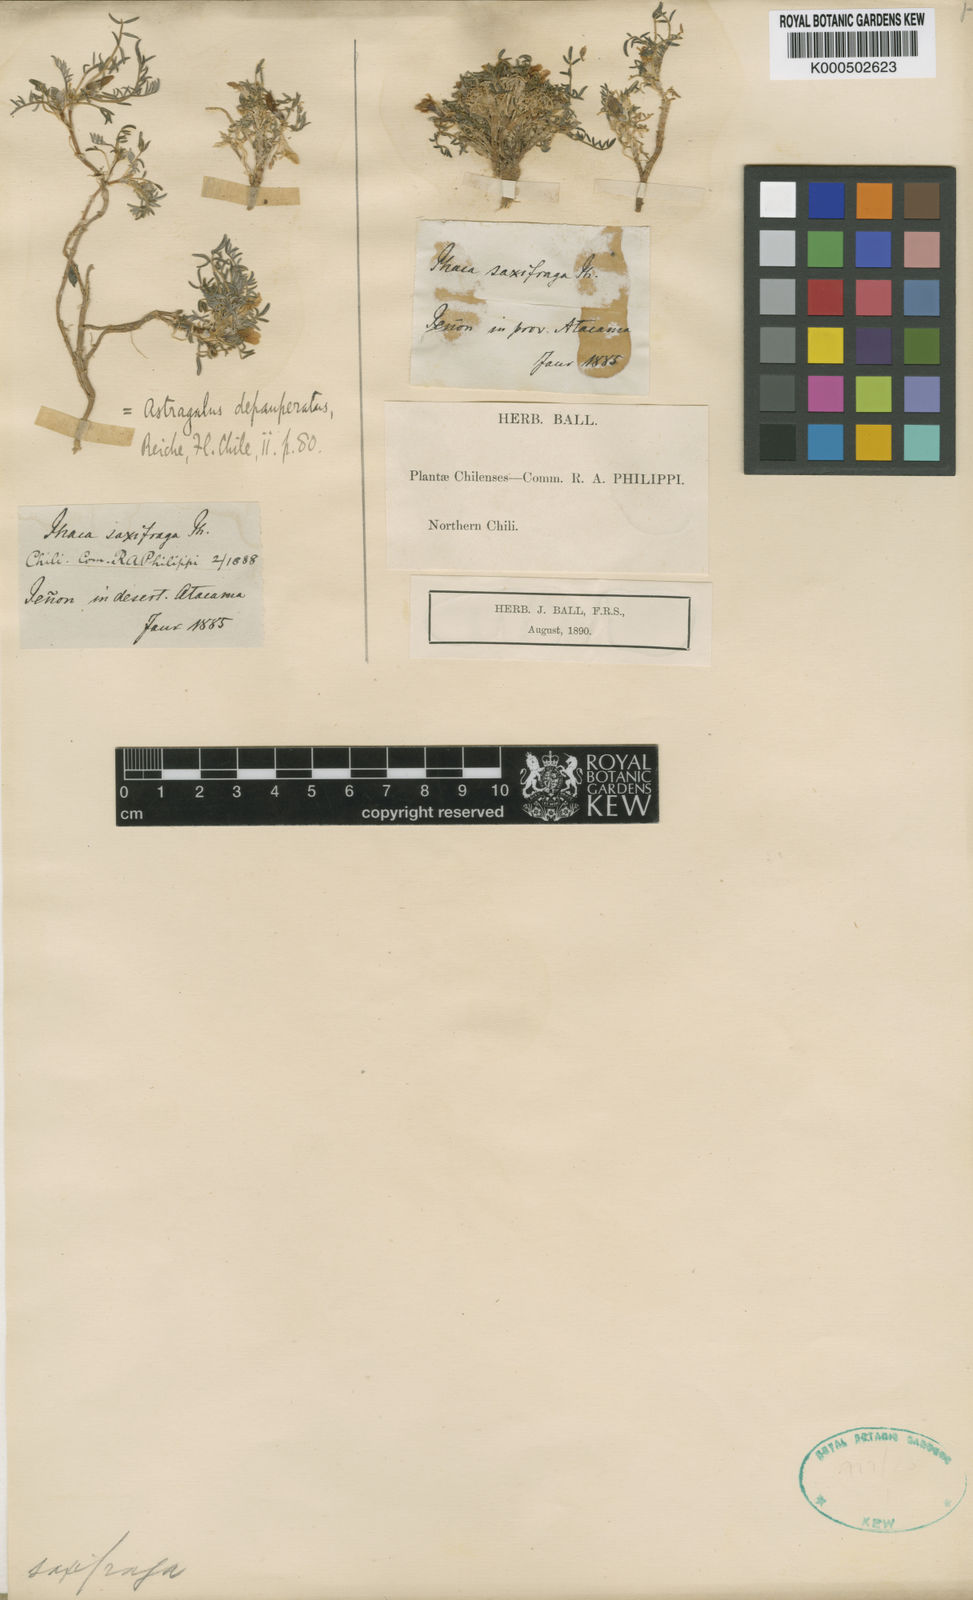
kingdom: Plantae
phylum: Tracheophyta
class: Magnoliopsida
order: Fabales
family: Fabaceae
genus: Astragalus
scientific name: Astragalus
